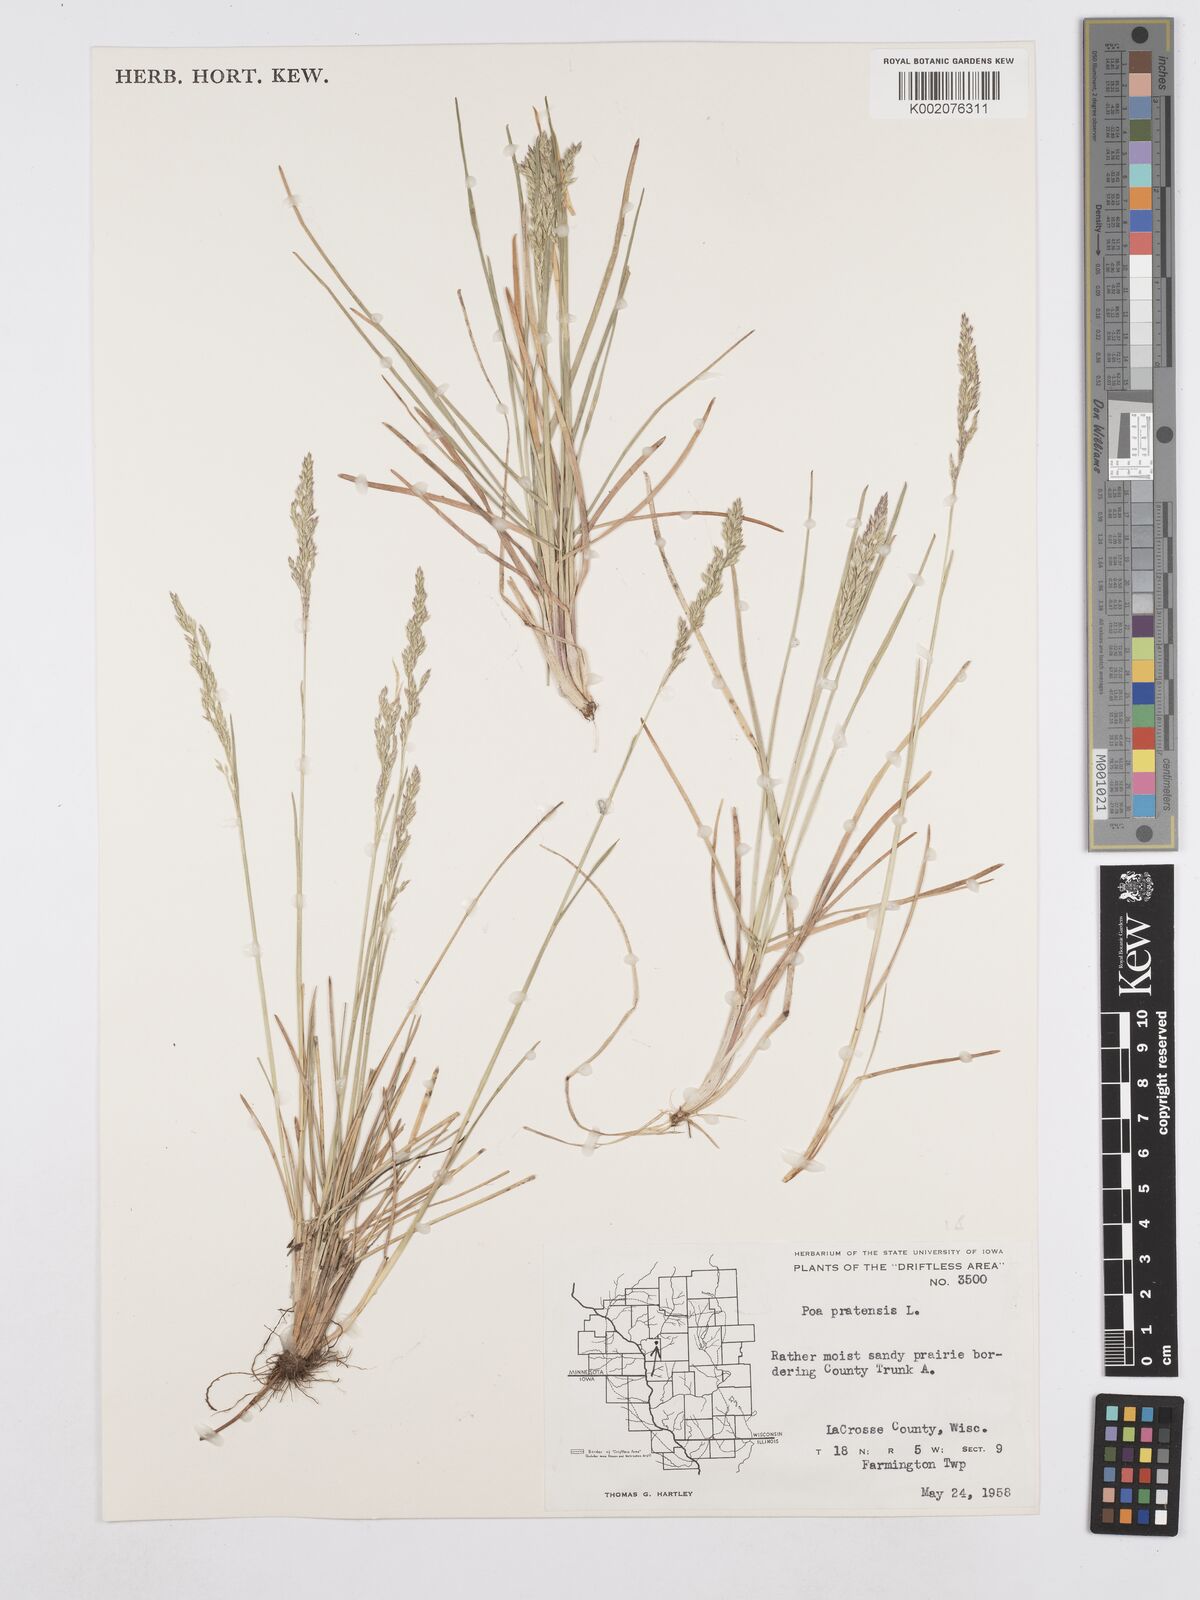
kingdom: Plantae
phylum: Tracheophyta
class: Liliopsida
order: Poales
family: Poaceae
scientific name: Poaceae
